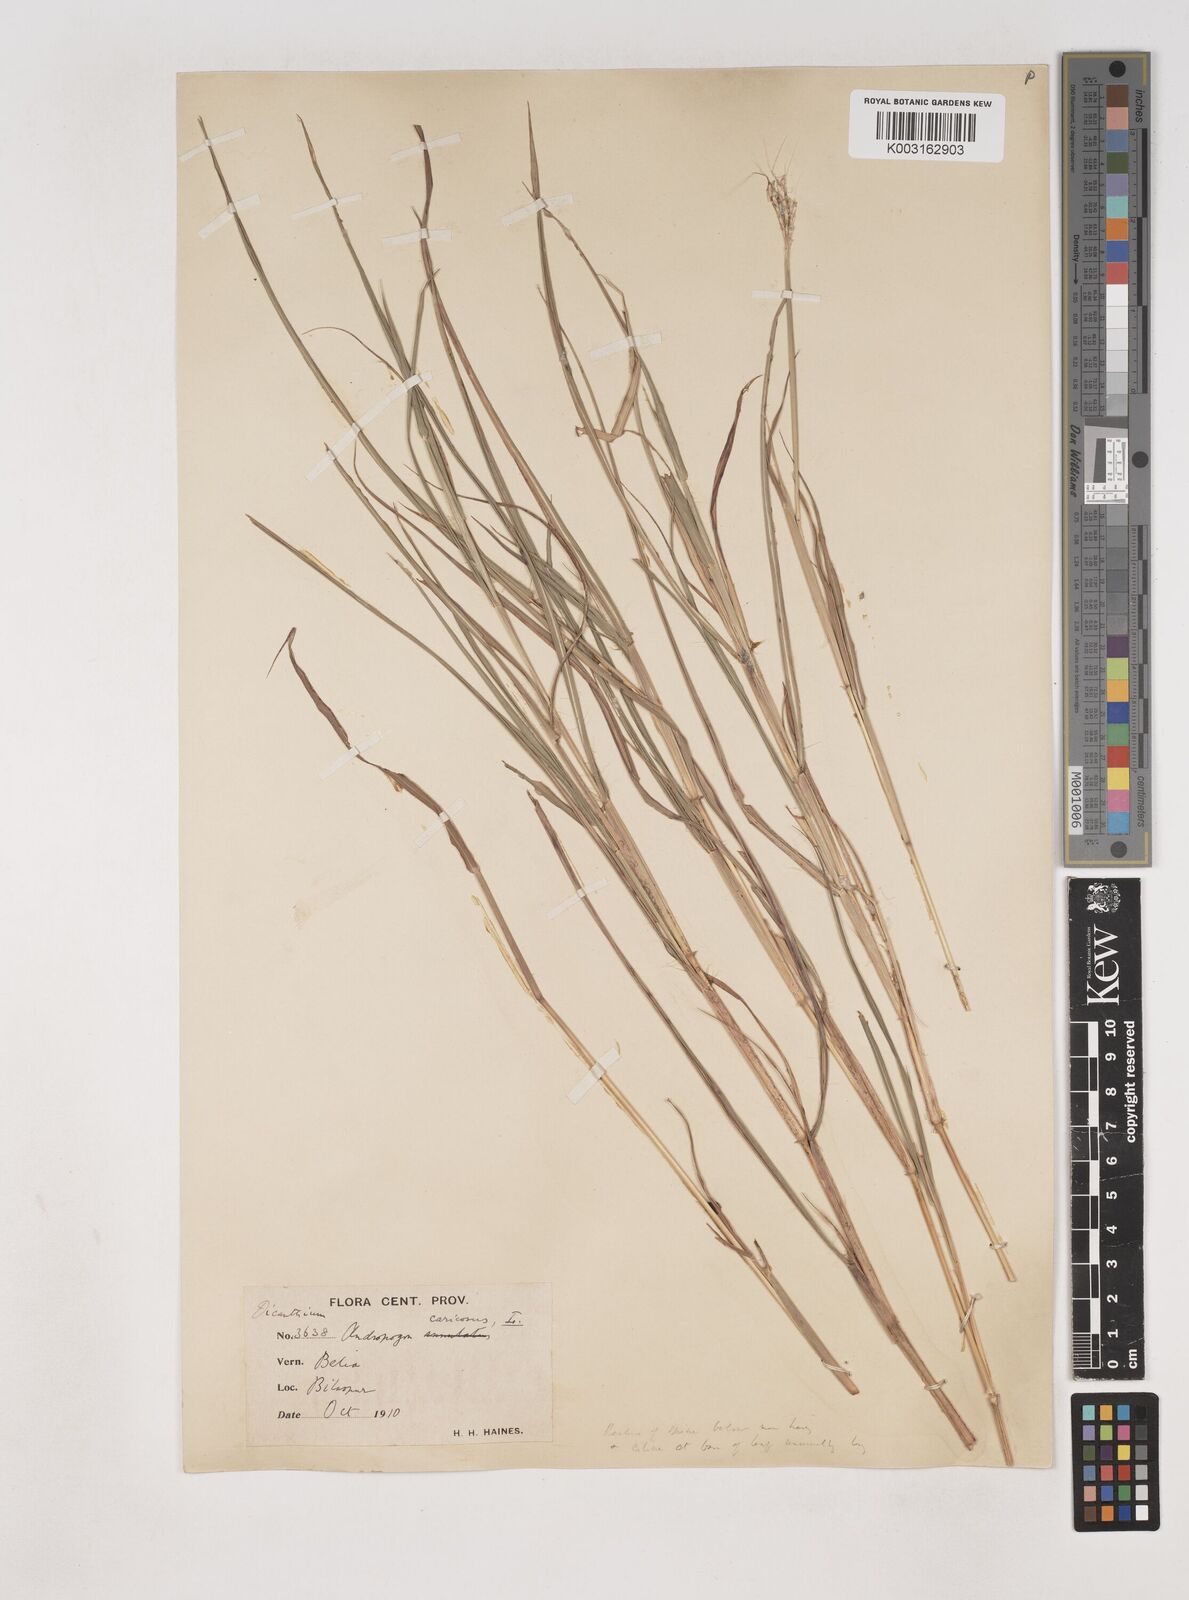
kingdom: Plantae
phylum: Tracheophyta
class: Liliopsida
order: Poales
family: Poaceae
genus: Dichanthium
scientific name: Dichanthium aristatum
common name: Angleton bluestem
